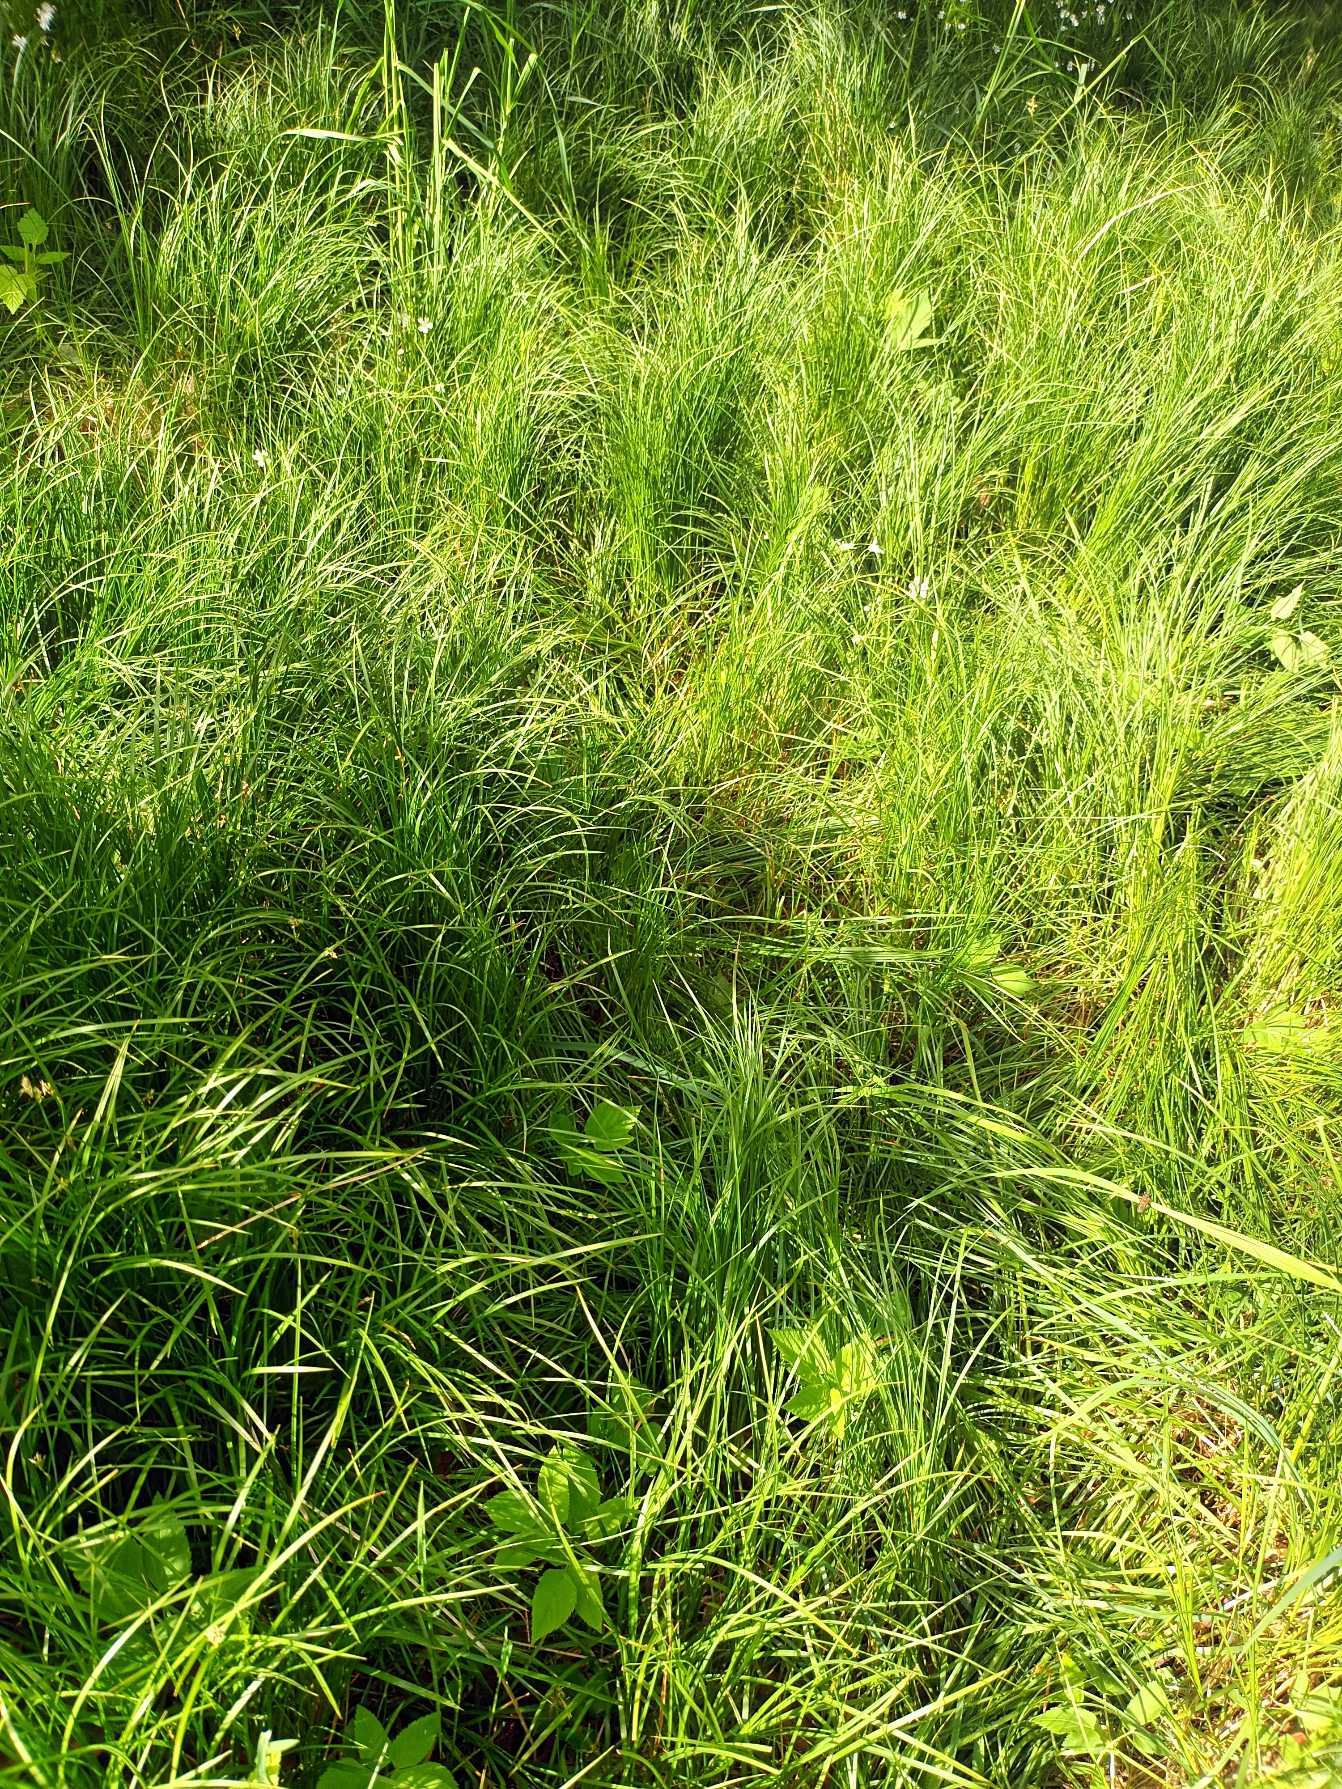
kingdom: Plantae
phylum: Tracheophyta
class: Liliopsida
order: Poales
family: Cyperaceae
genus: Carex
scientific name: Carex brizoides
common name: Bævre-star
